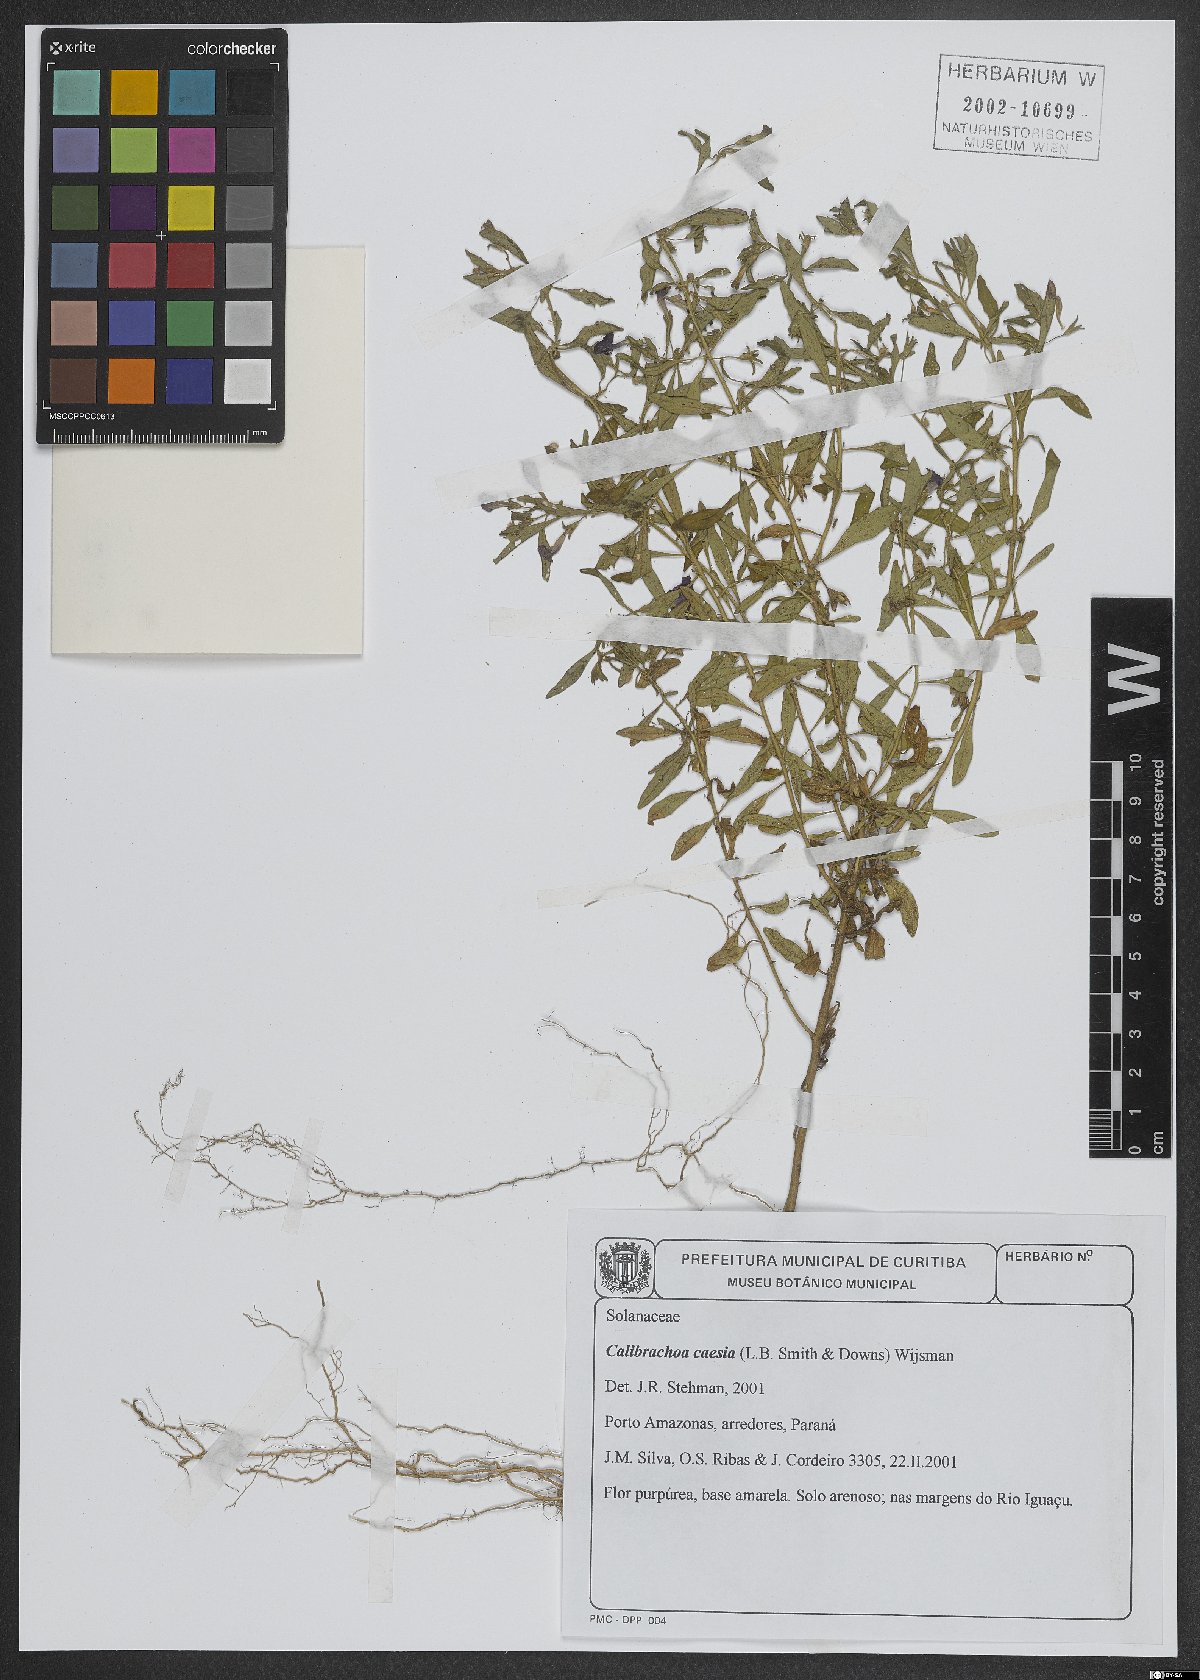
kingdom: Plantae
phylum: Tracheophyta
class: Magnoliopsida
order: Solanales
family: Solanaceae
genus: Calibrachoa
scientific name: Calibrachoa caesia
